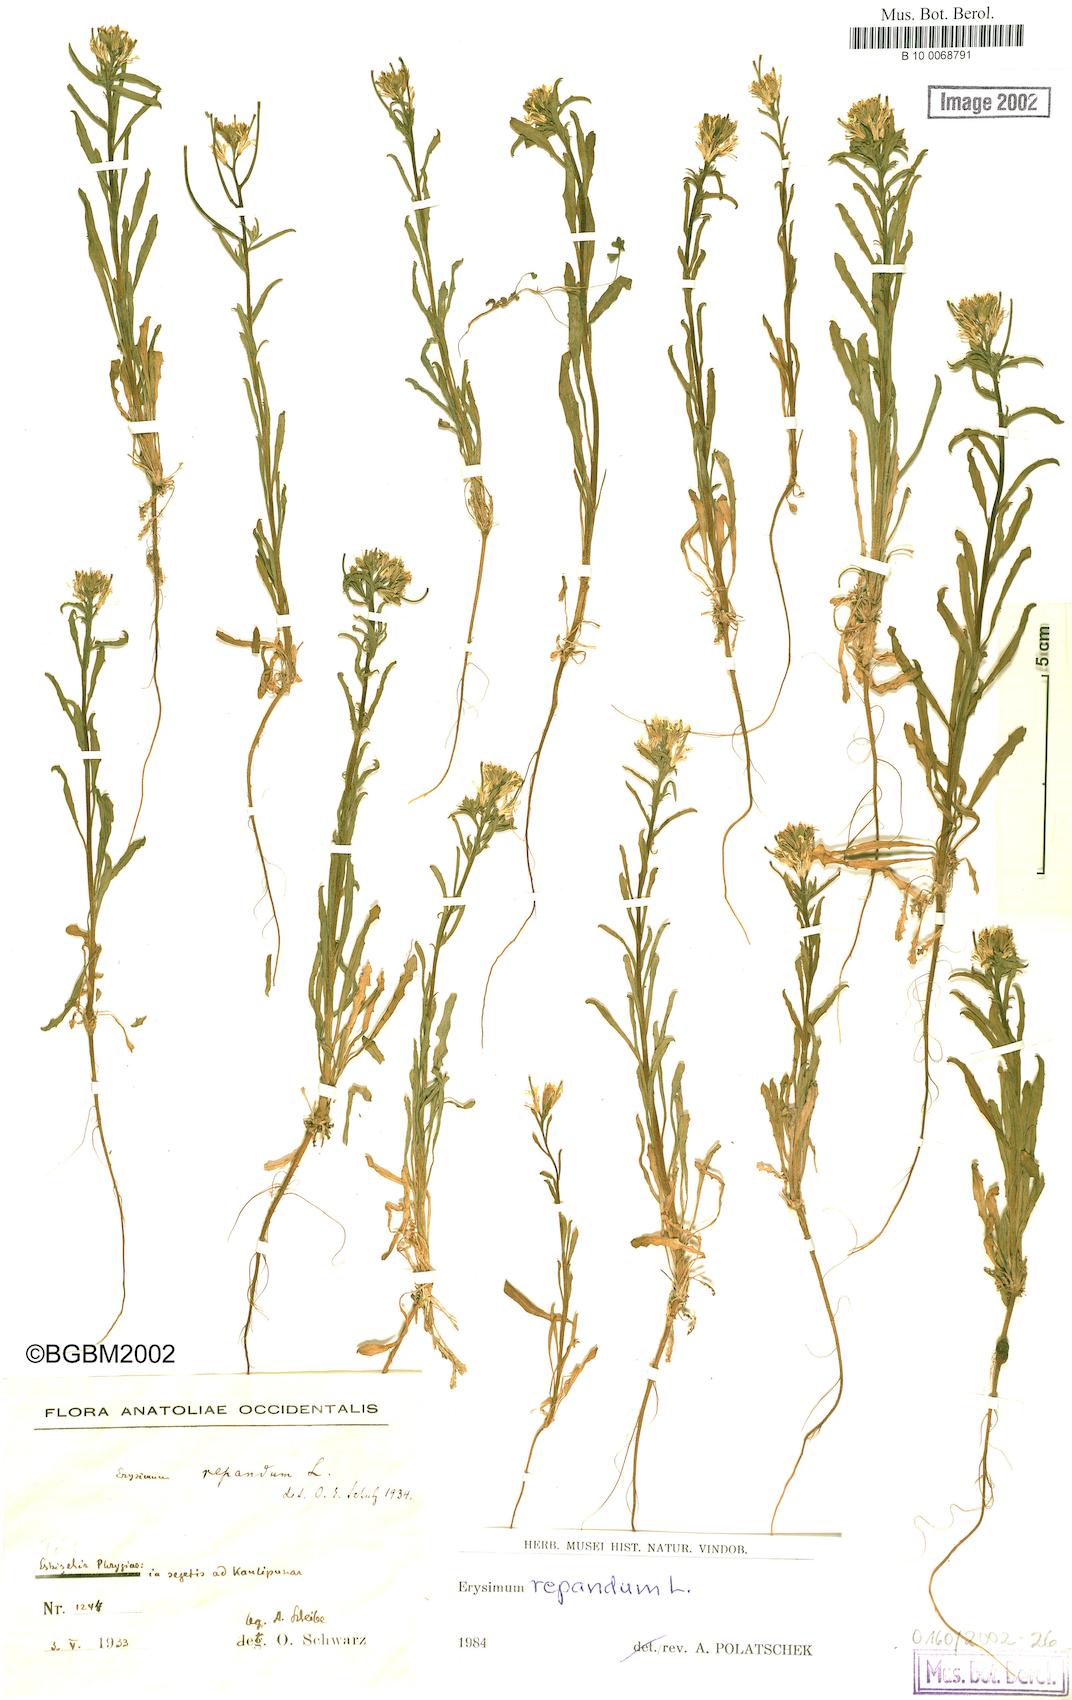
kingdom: Plantae
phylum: Tracheophyta
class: Magnoliopsida
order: Brassicales
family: Brassicaceae
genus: Erysimum
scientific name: Erysimum repandum
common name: Spreading wallflower
